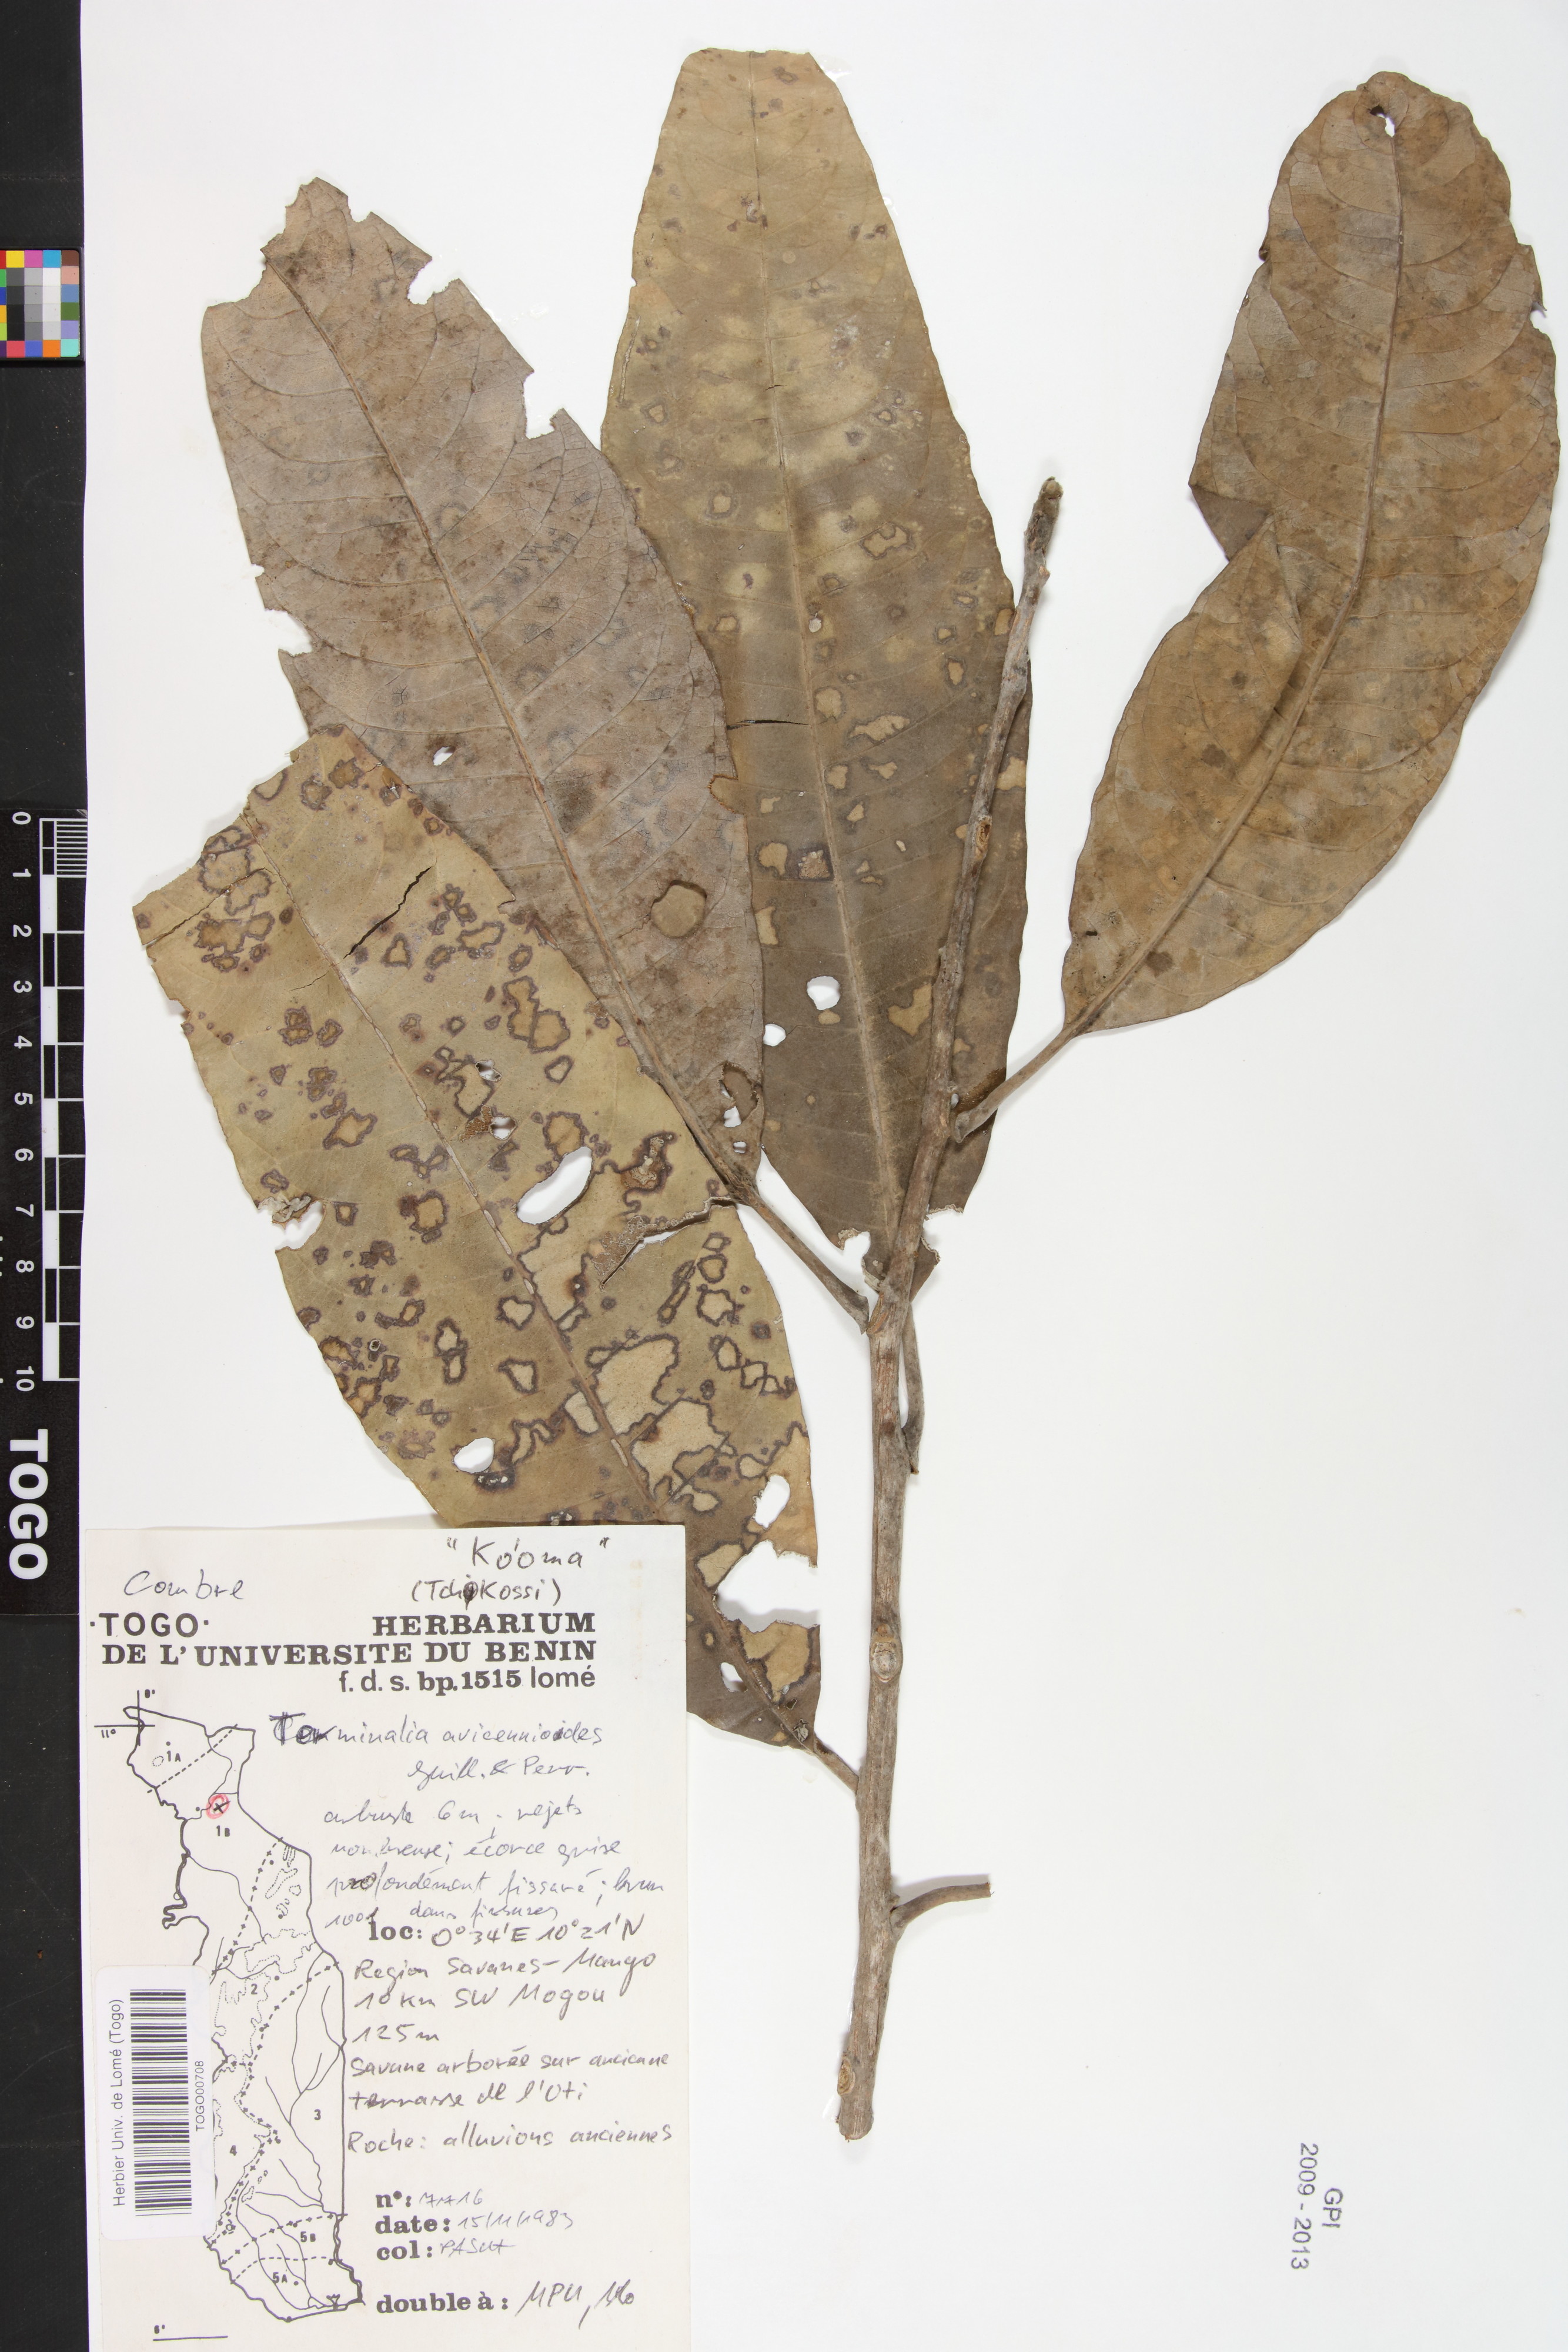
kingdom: Plantae
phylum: Tracheophyta
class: Magnoliopsida
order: Myrtales
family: Combretaceae
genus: Terminalia
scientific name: Terminalia avicennioides
